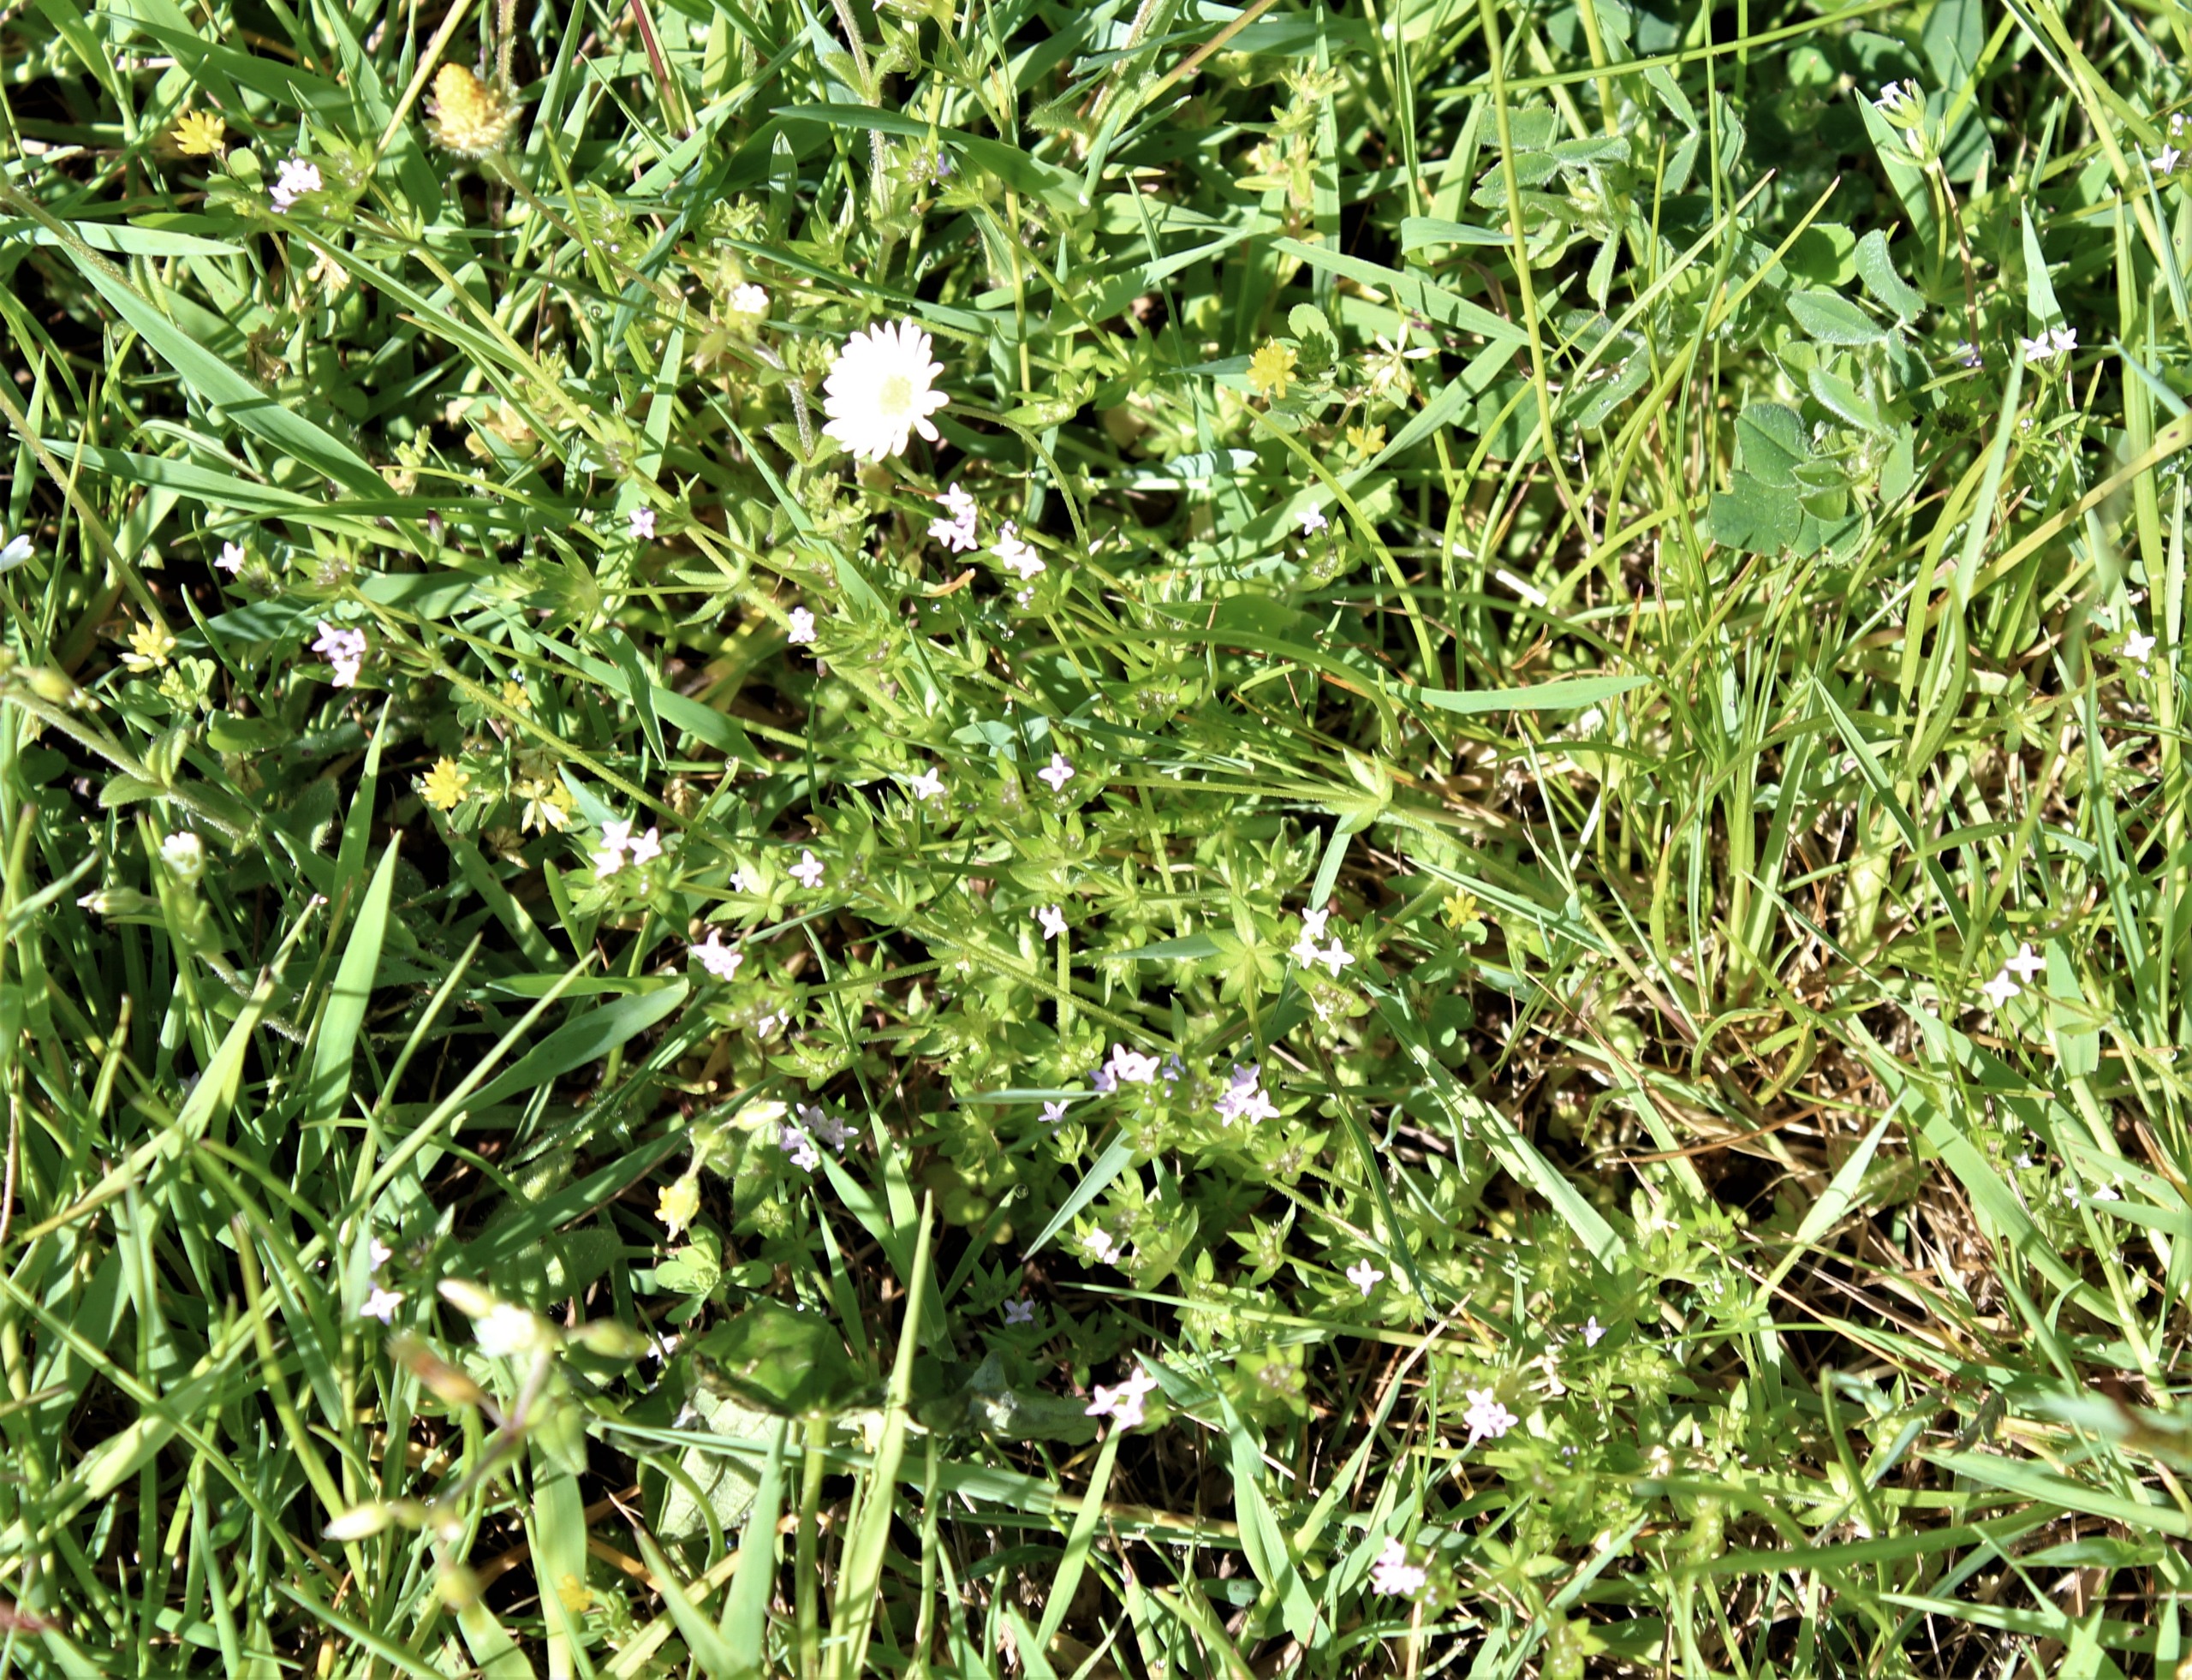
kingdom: Plantae
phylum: Tracheophyta
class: Magnoliopsida
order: Gentianales
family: Rubiaceae
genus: Sherardia
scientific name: Sherardia arvensis
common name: Blåstjerne
